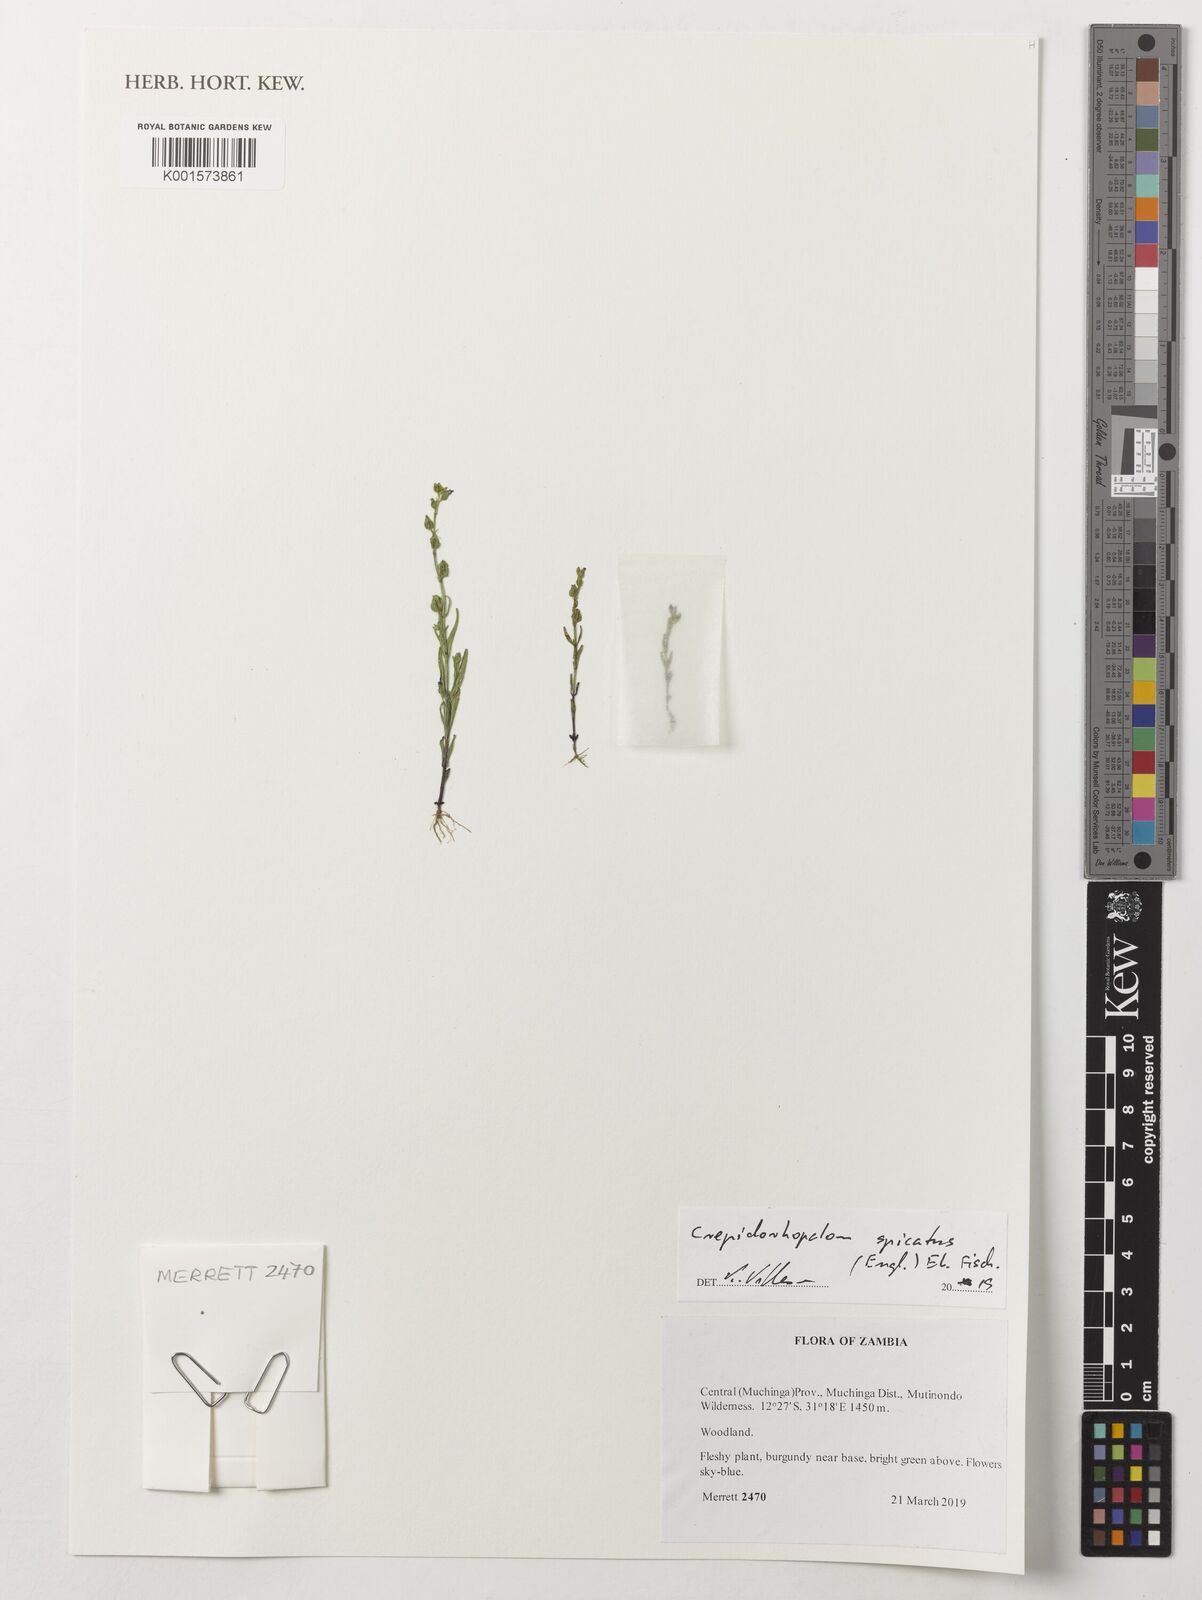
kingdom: Plantae
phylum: Tracheophyta
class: Magnoliopsida
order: Lamiales
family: Linderniaceae
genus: Crepidorhopalon
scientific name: Crepidorhopalon spicatus
